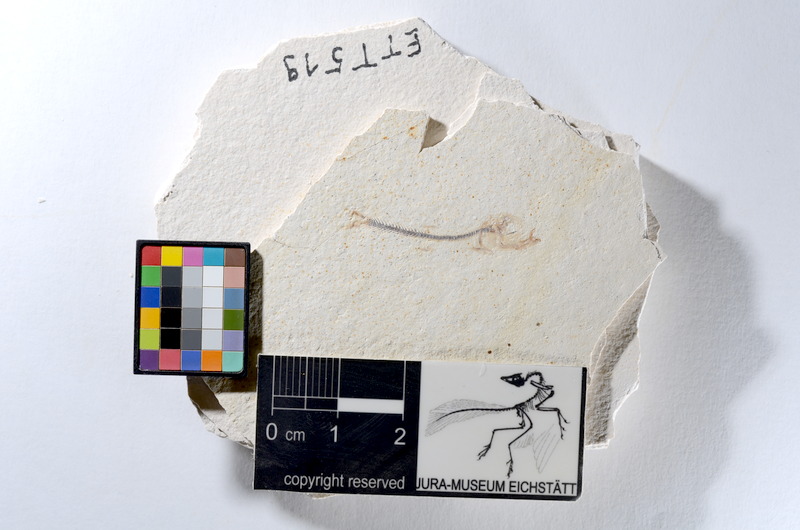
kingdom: Animalia
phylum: Chordata
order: Salmoniformes
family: Orthogonikleithridae
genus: Orthogonikleithrus
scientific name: Orthogonikleithrus hoelli
